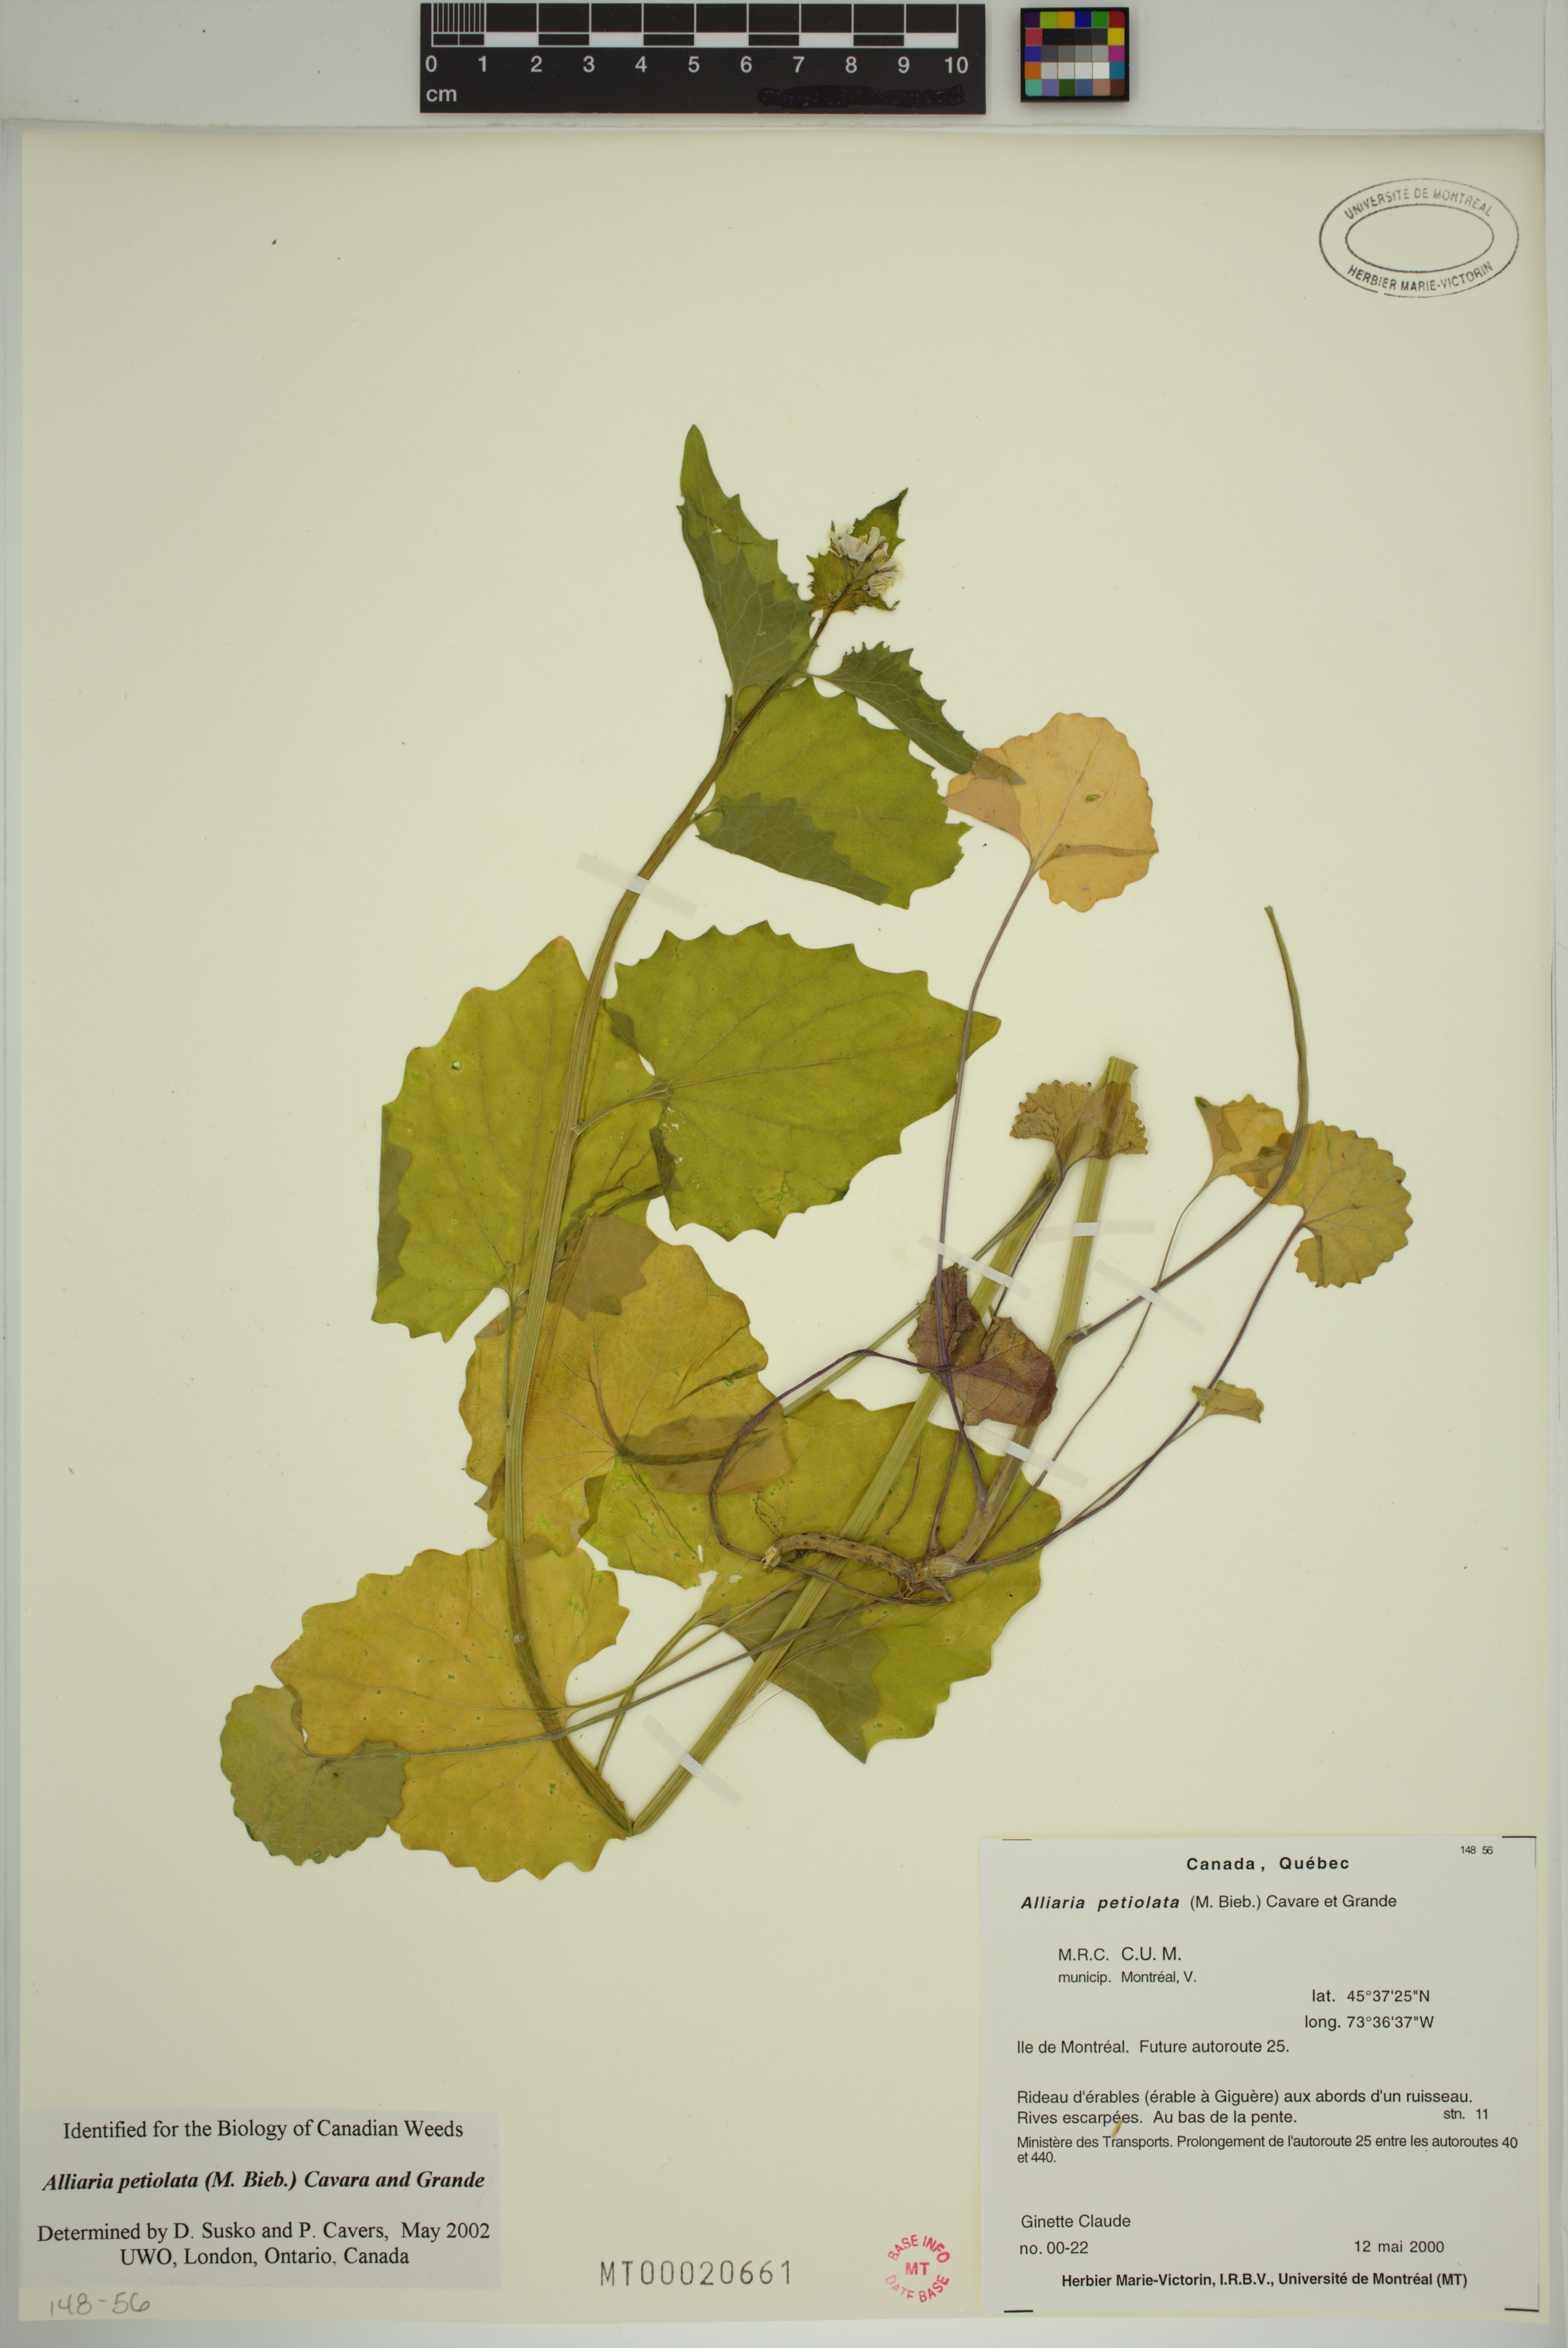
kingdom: Plantae
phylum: Tracheophyta
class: Magnoliopsida
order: Brassicales
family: Brassicaceae
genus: Alliaria
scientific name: Alliaria petiolata
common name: Garlic mustard
